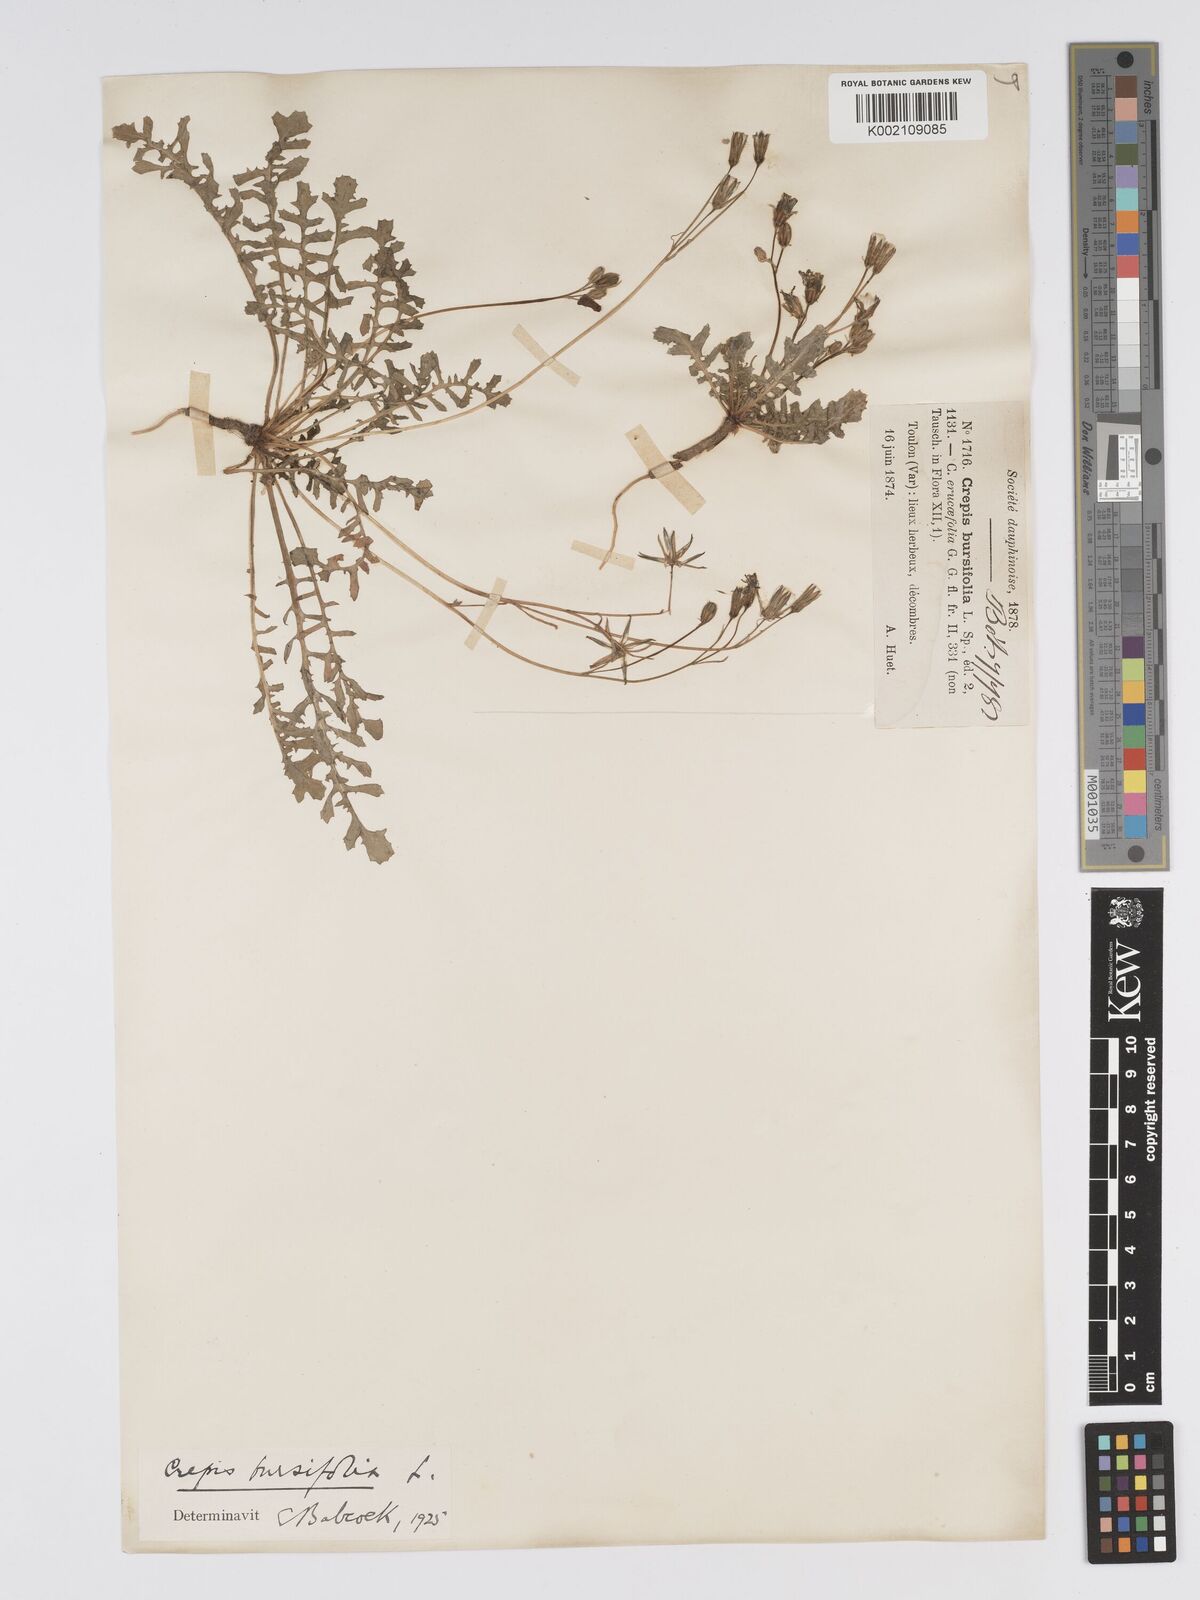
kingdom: Plantae
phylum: Tracheophyta
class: Magnoliopsida
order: Asterales
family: Asteraceae
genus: Crepis
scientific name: Crepis bursifolia
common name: Italian hawksbeard
